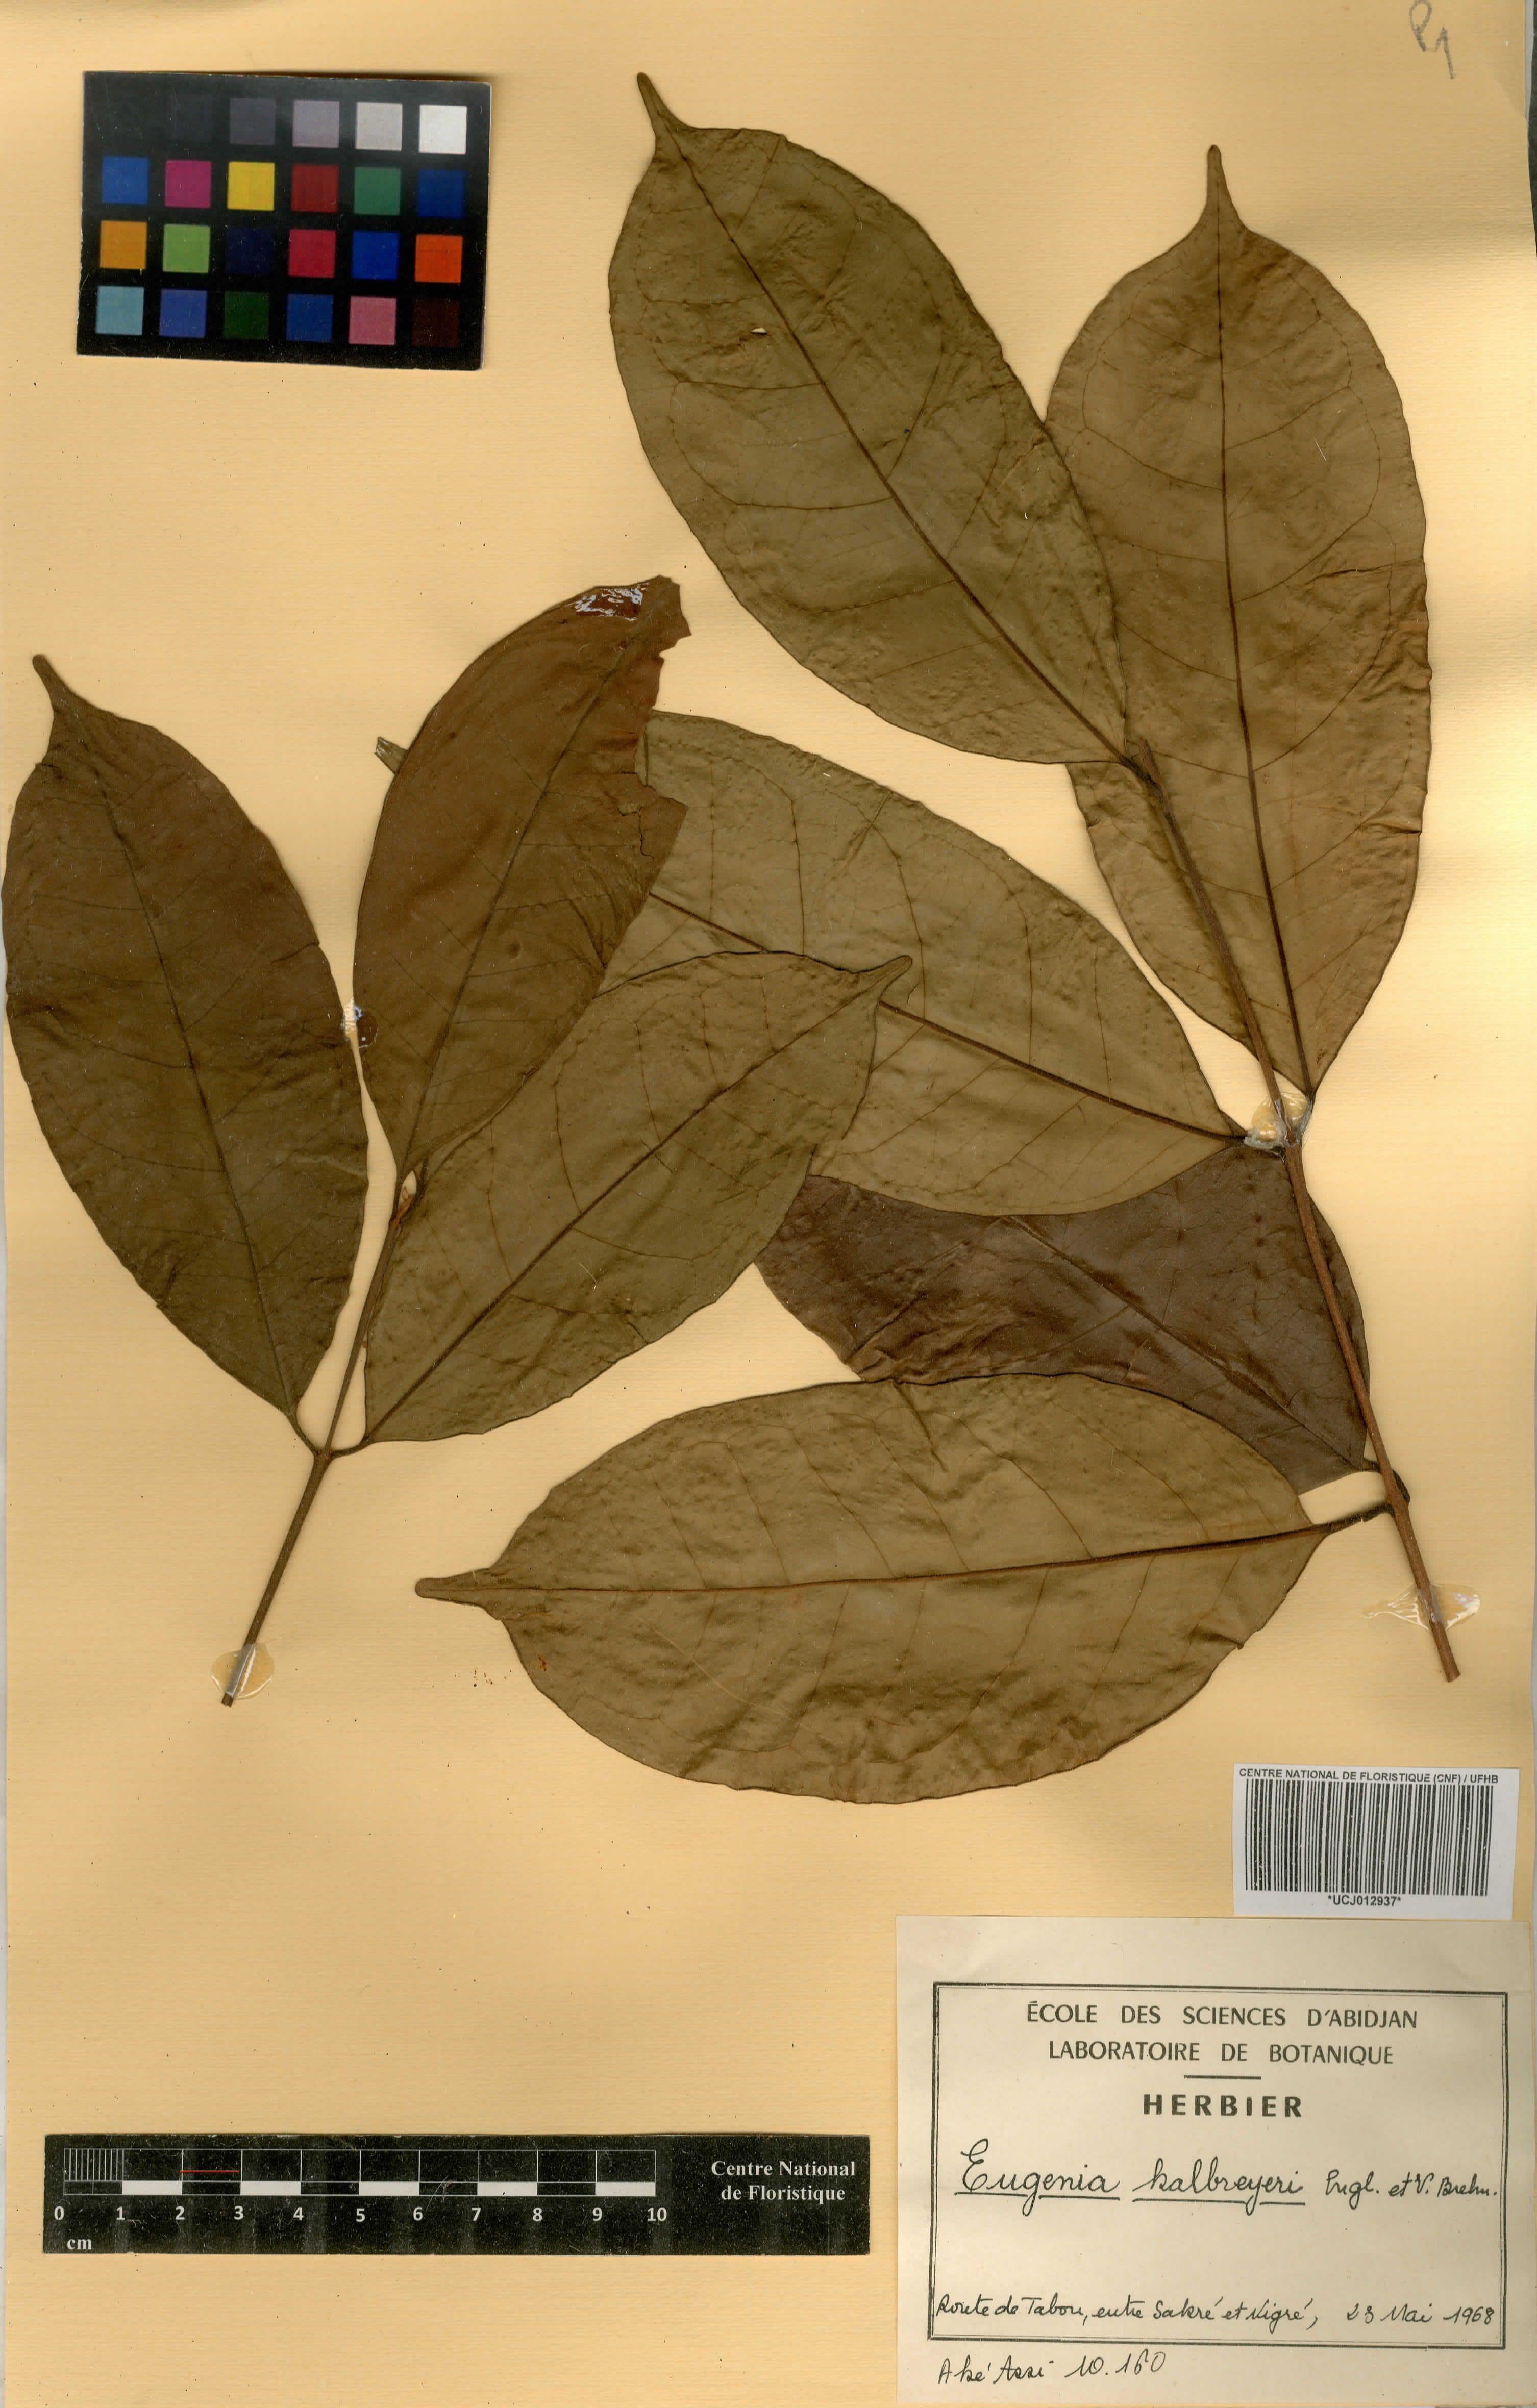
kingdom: Plantae
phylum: Tracheophyta
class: Magnoliopsida
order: Myrtales
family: Myrtaceae
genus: Eugenia
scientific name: Eugenia leonensis
